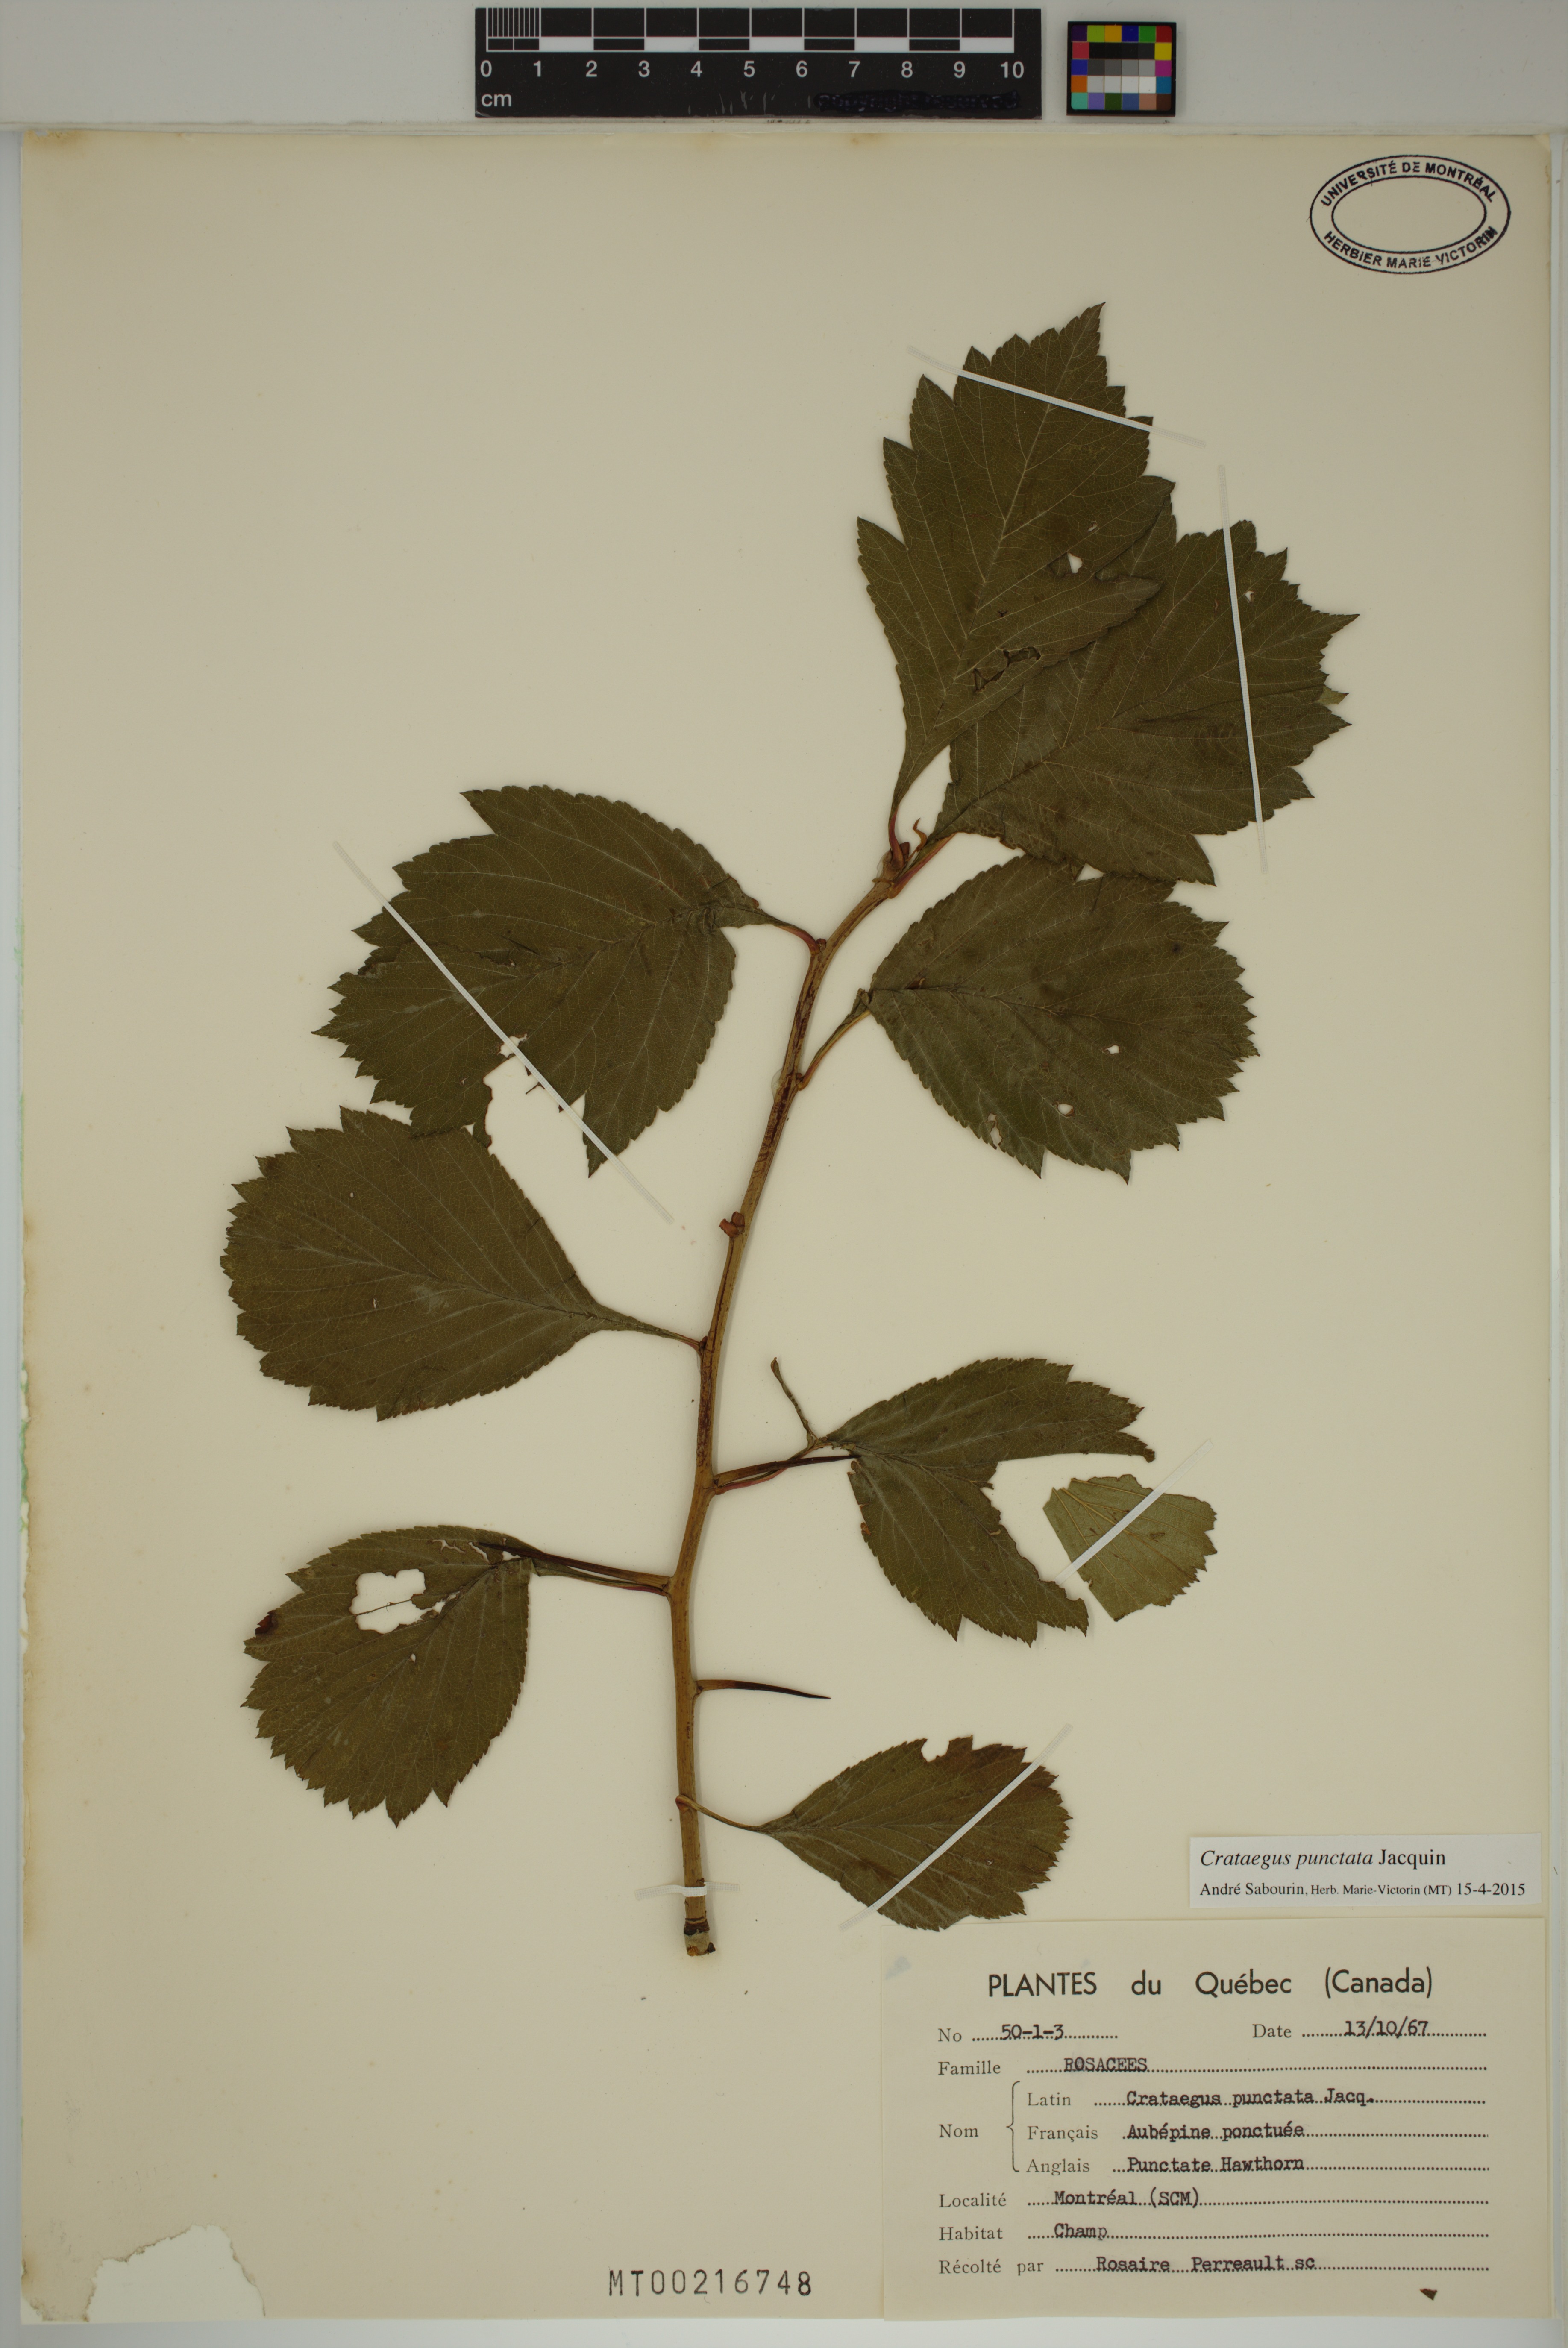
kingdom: Plantae
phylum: Tracheophyta
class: Magnoliopsida
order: Rosales
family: Rosaceae
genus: Crataegus
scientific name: Crataegus punctata
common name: Dotted hawthorn
